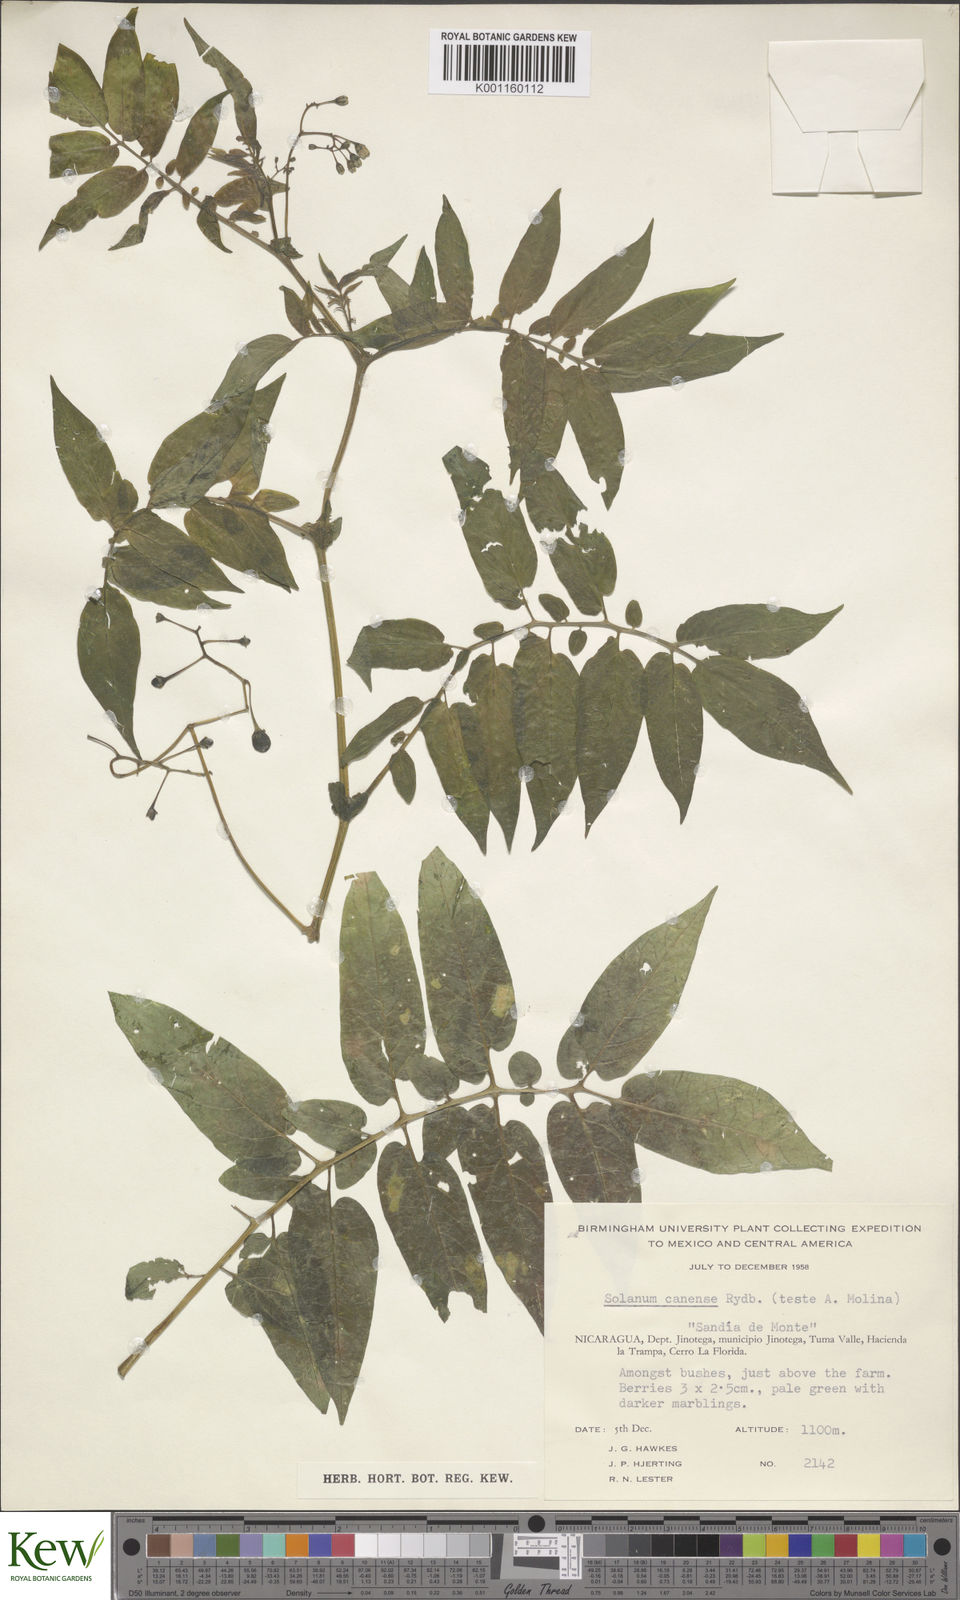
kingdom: Plantae
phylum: Tracheophyta
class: Magnoliopsida
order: Solanales
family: Solanaceae
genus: Solanum
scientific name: Solanum canense
